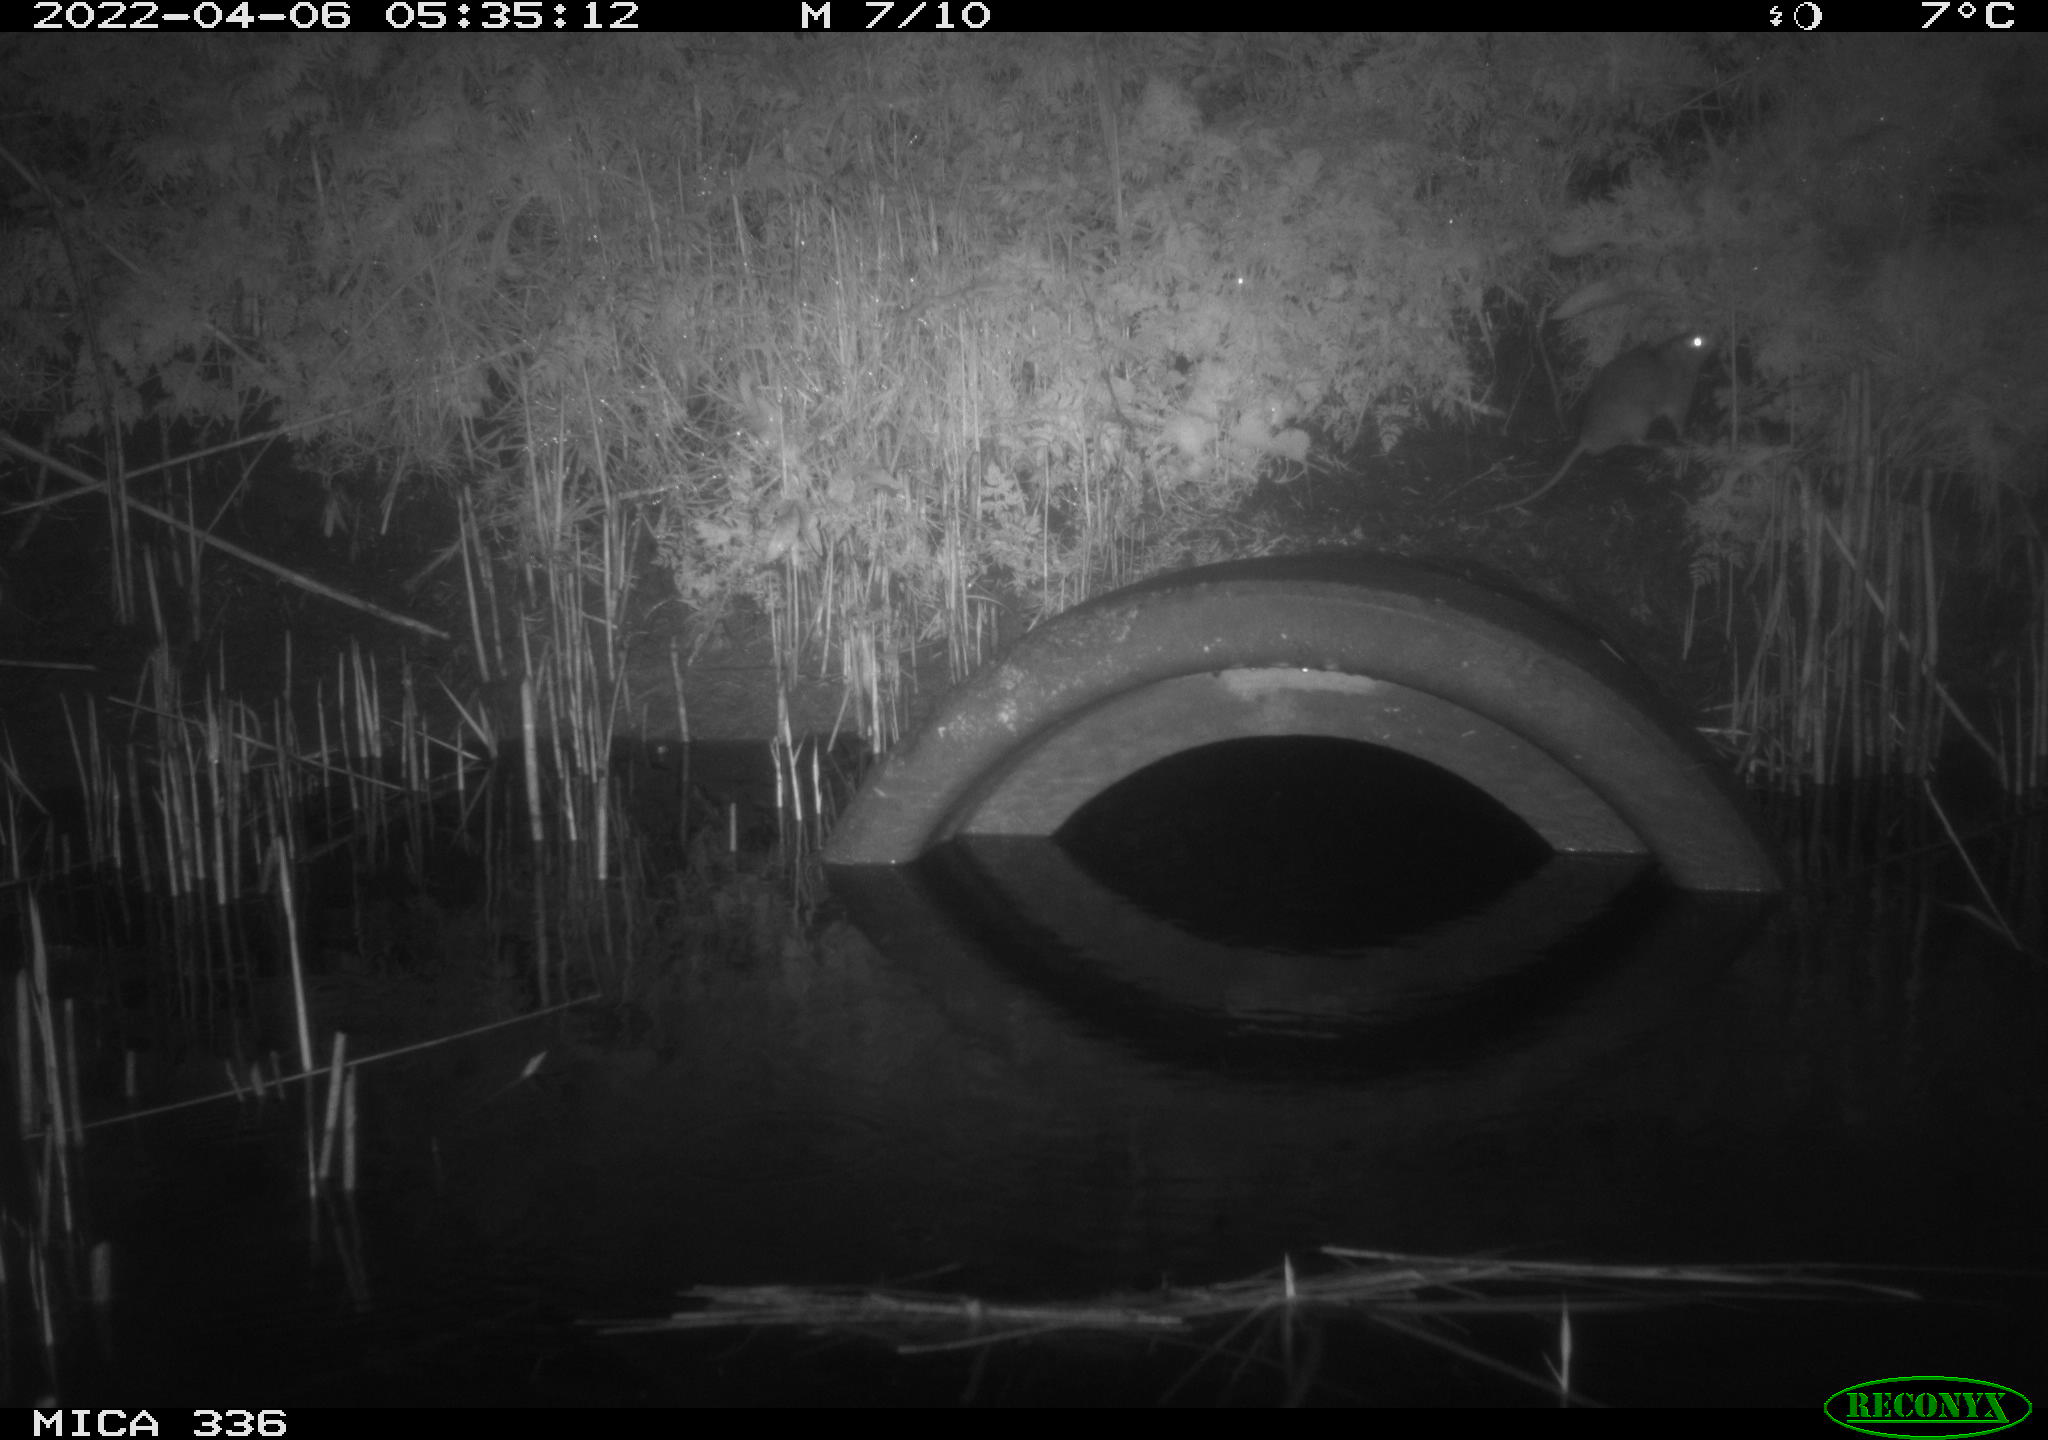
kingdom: Animalia
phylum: Chordata
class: Mammalia
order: Rodentia
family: Muridae
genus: Rattus
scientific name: Rattus norvegicus
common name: Brown rat
